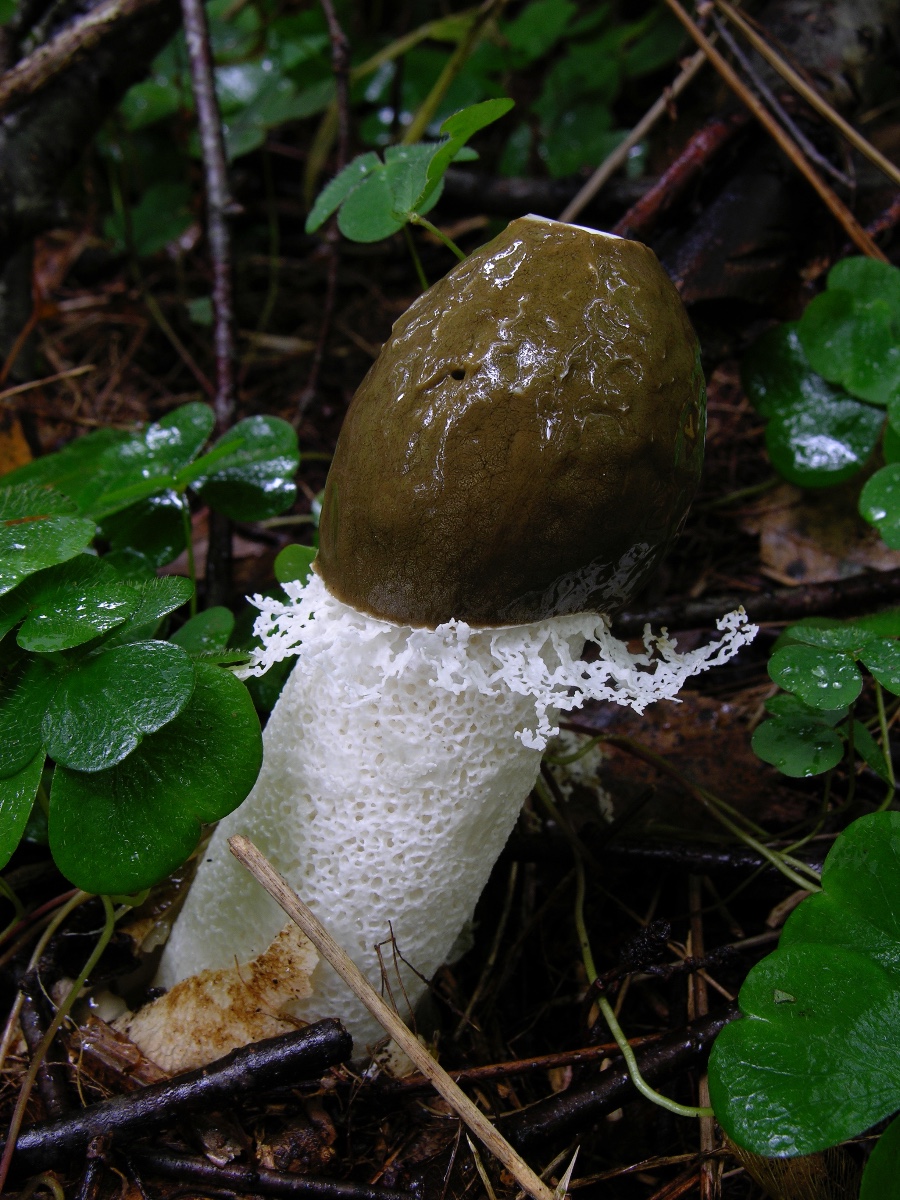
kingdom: Fungi
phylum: Basidiomycota
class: Agaricomycetes
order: Phallales
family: Phallaceae
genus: Phallus
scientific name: Phallus impudicus
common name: Common stinkhorn
